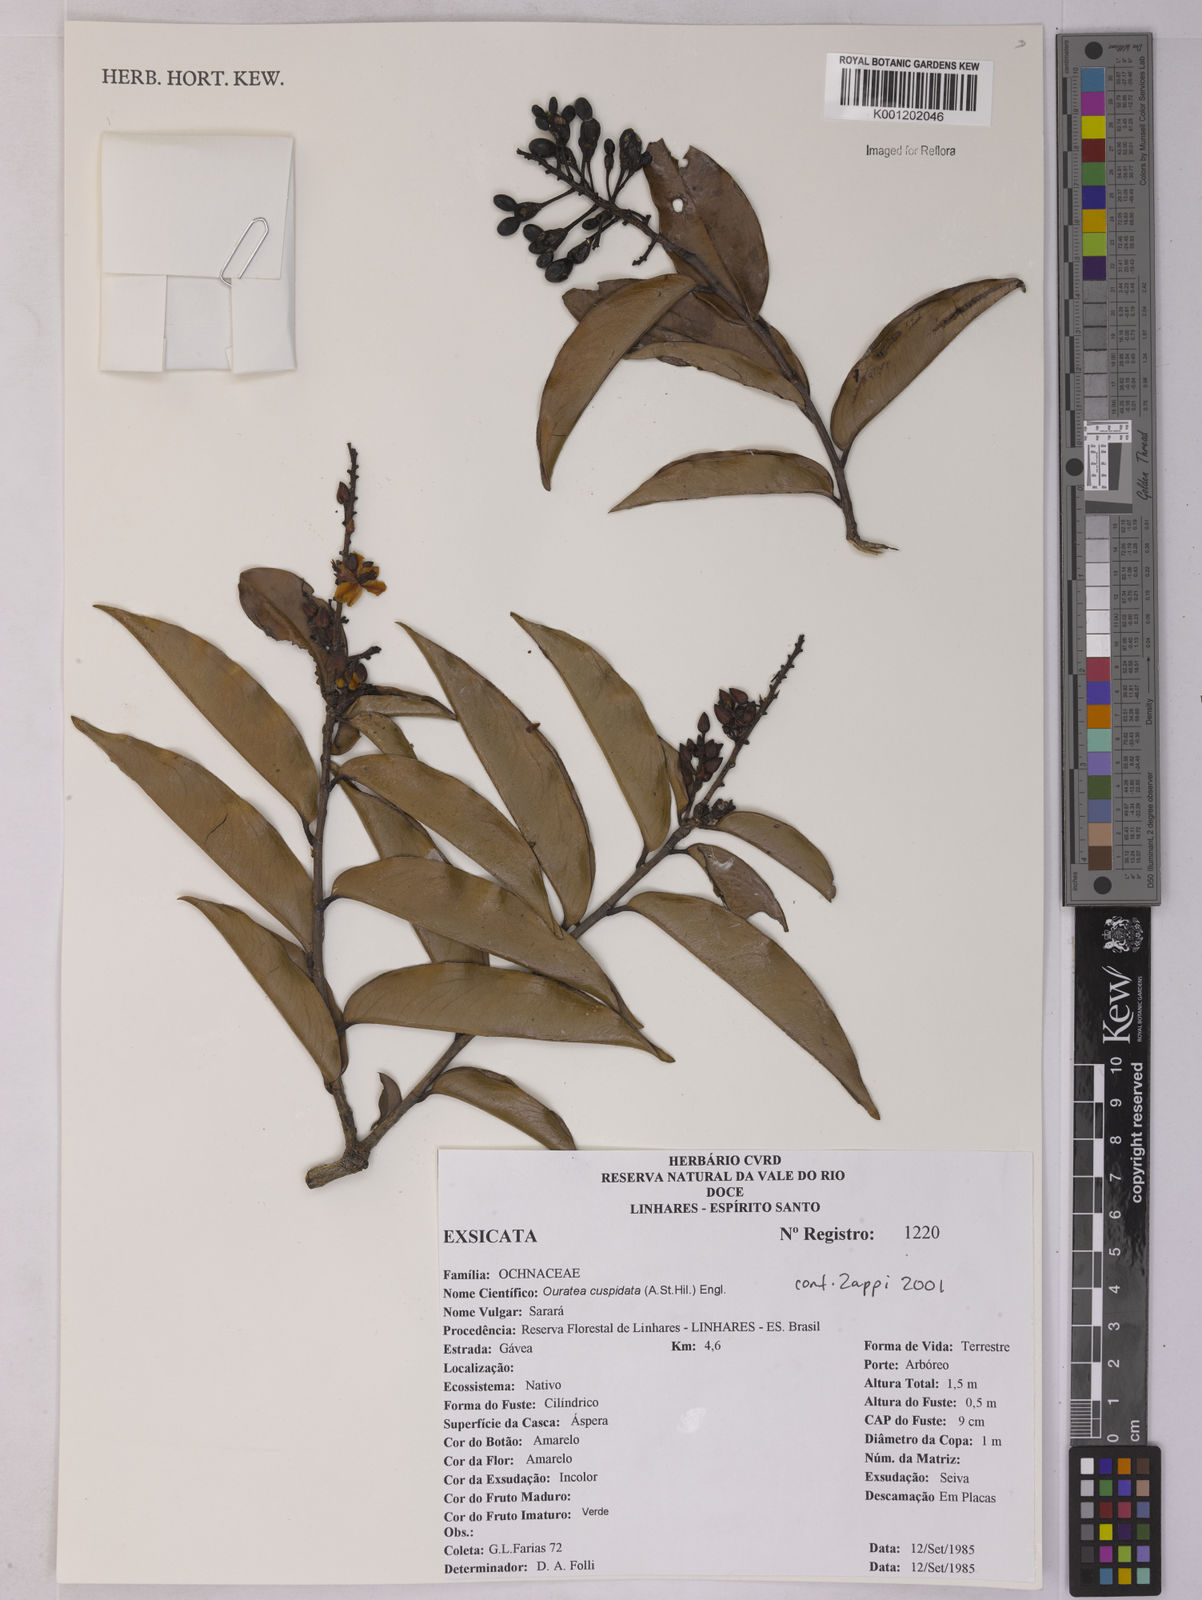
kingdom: Plantae
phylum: Tracheophyta
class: Magnoliopsida
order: Malpighiales
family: Ochnaceae
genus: Ouratea
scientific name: Ouratea cuspidata
